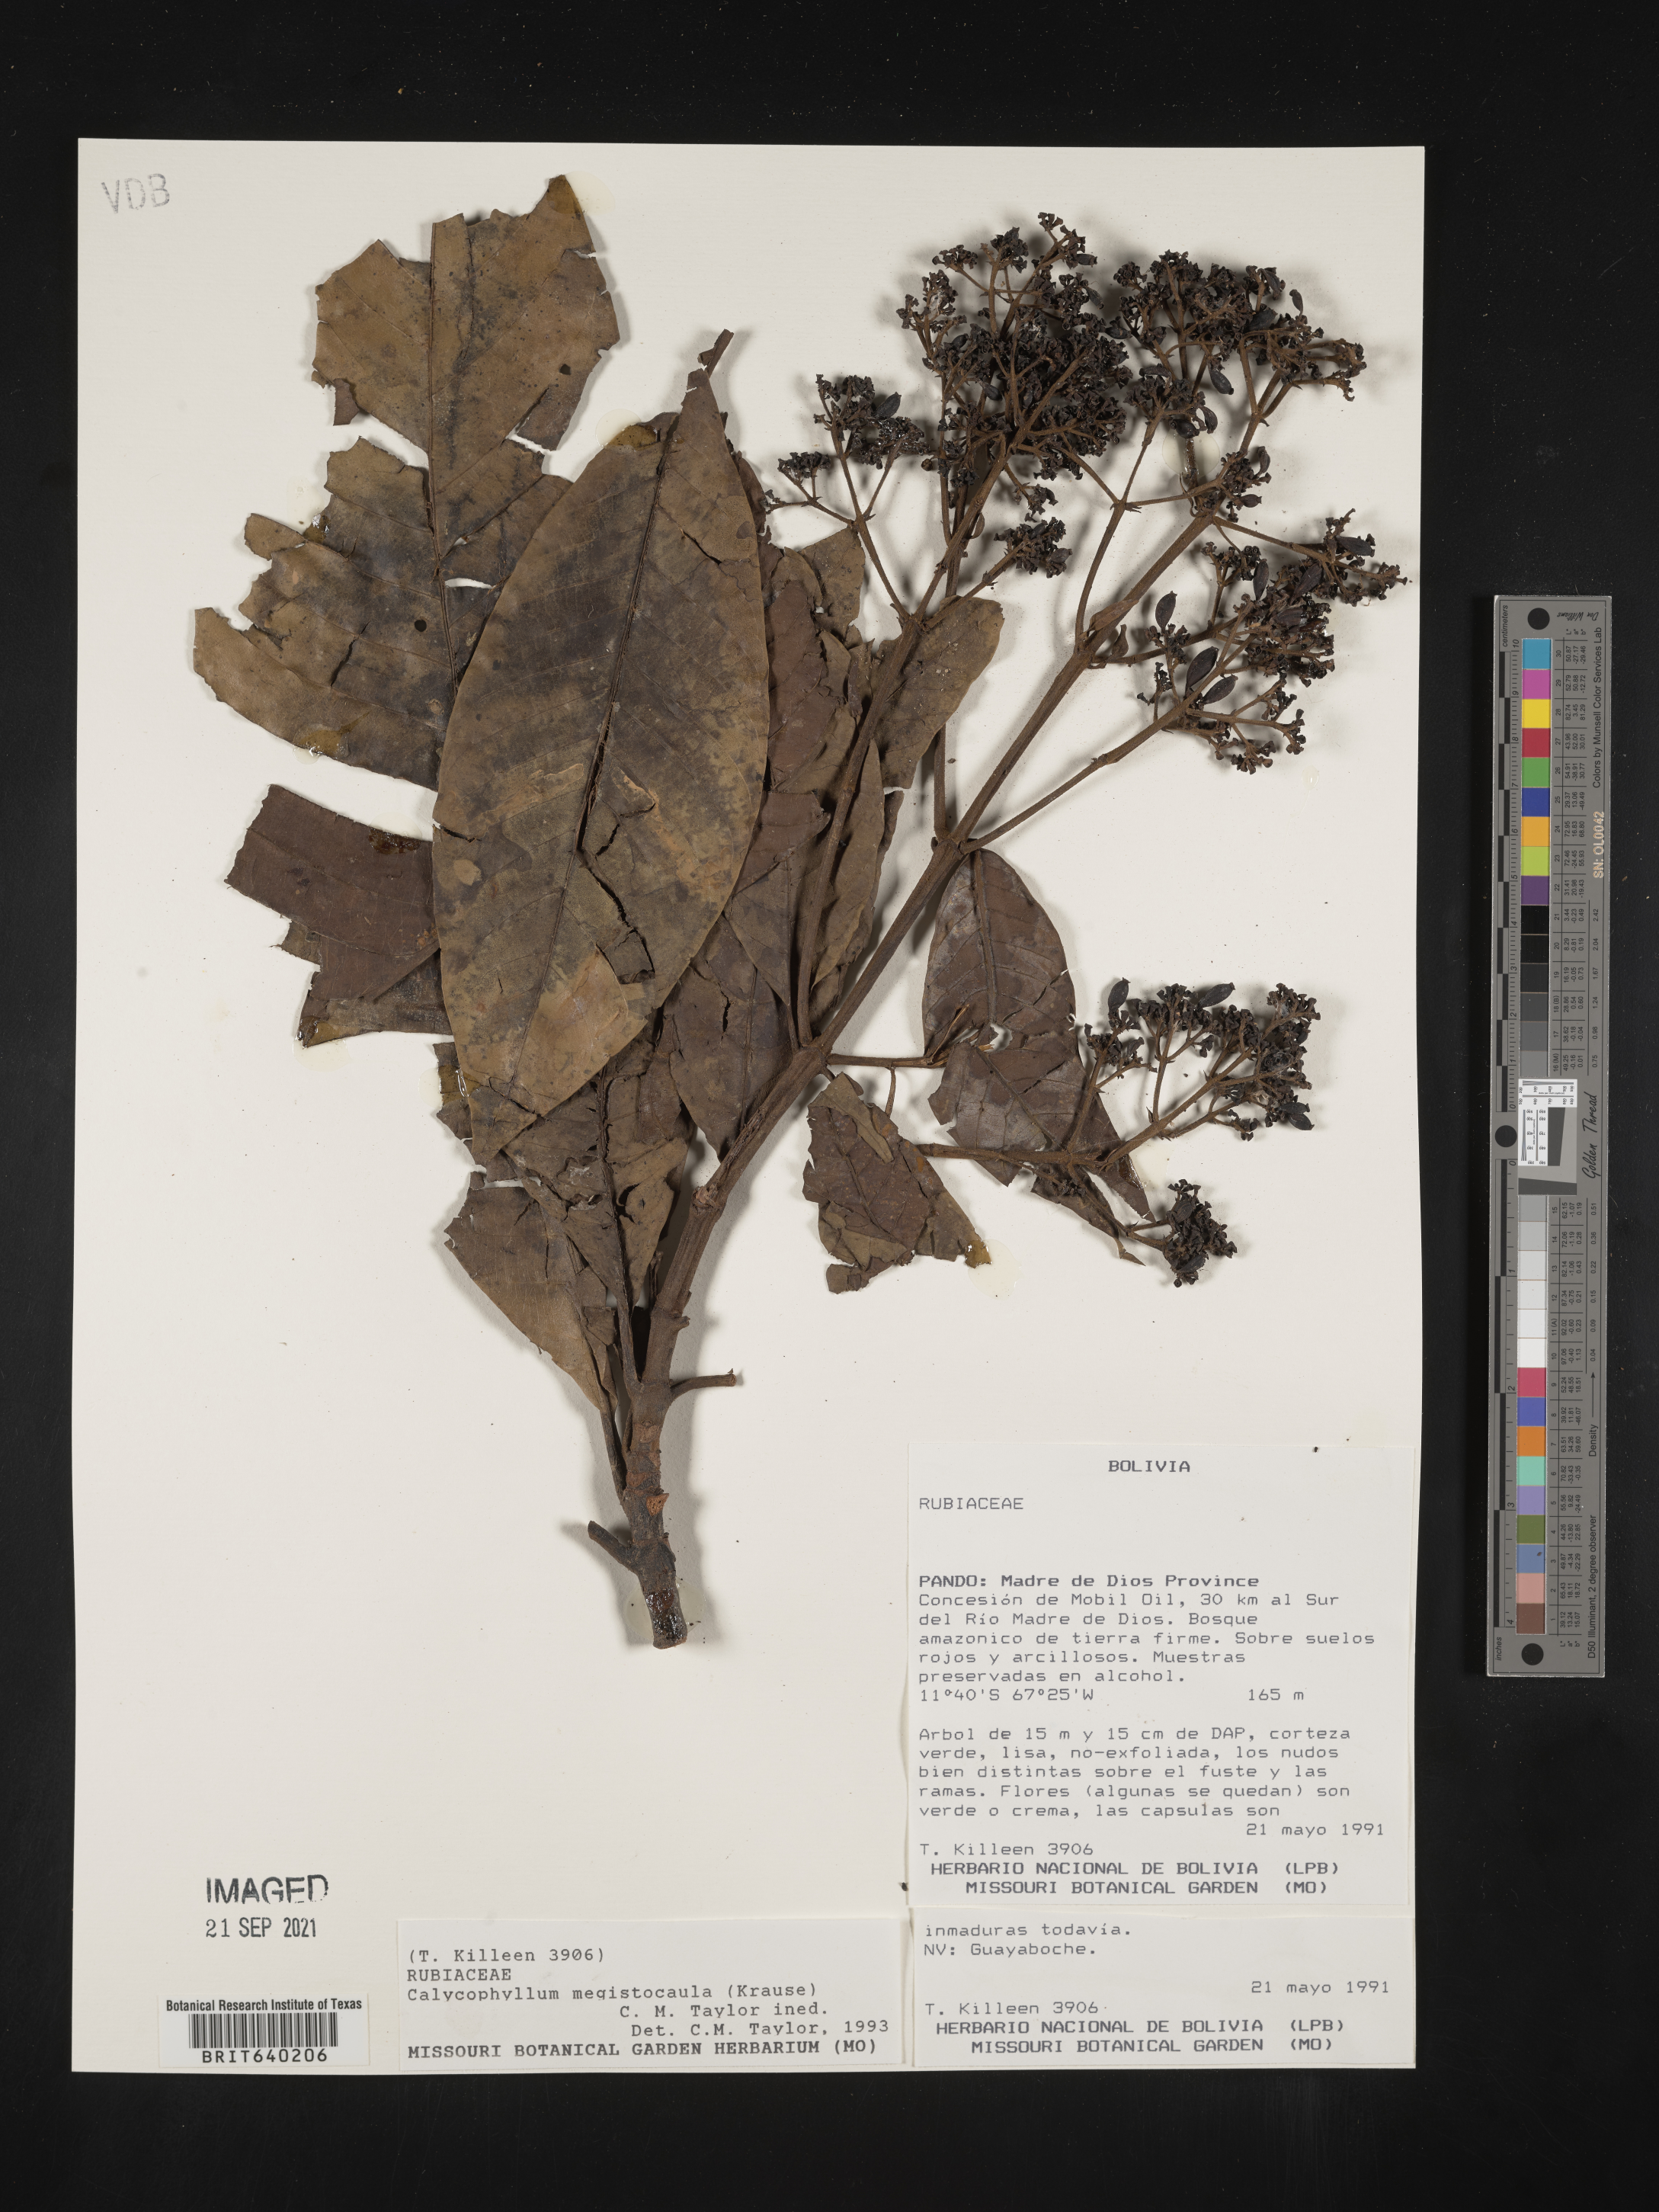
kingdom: Plantae
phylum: Tracheophyta
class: Magnoliopsida
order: Gentianales
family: Rubiaceae
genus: Calycophyllum
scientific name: Calycophyllum
